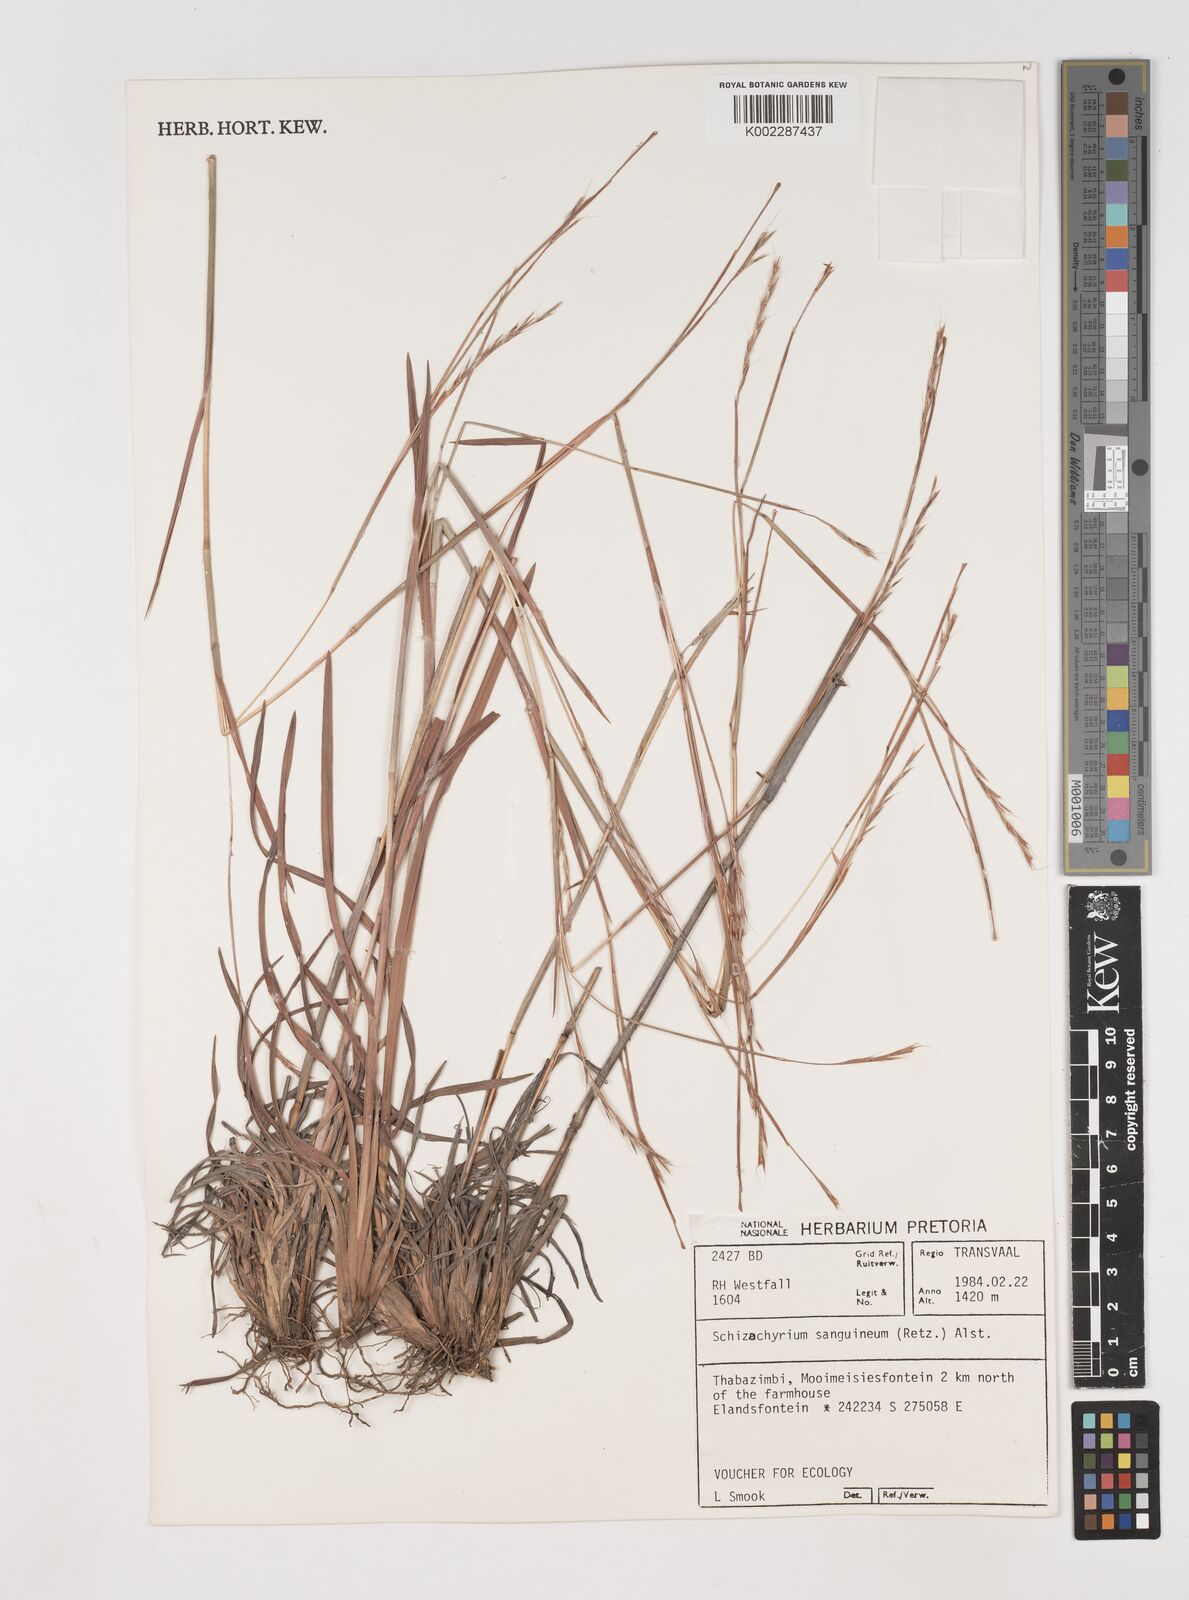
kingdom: Plantae
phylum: Tracheophyta
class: Liliopsida
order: Poales
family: Poaceae
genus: Schizachyrium
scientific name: Schizachyrium sanguineum
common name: Crimson bluestem
